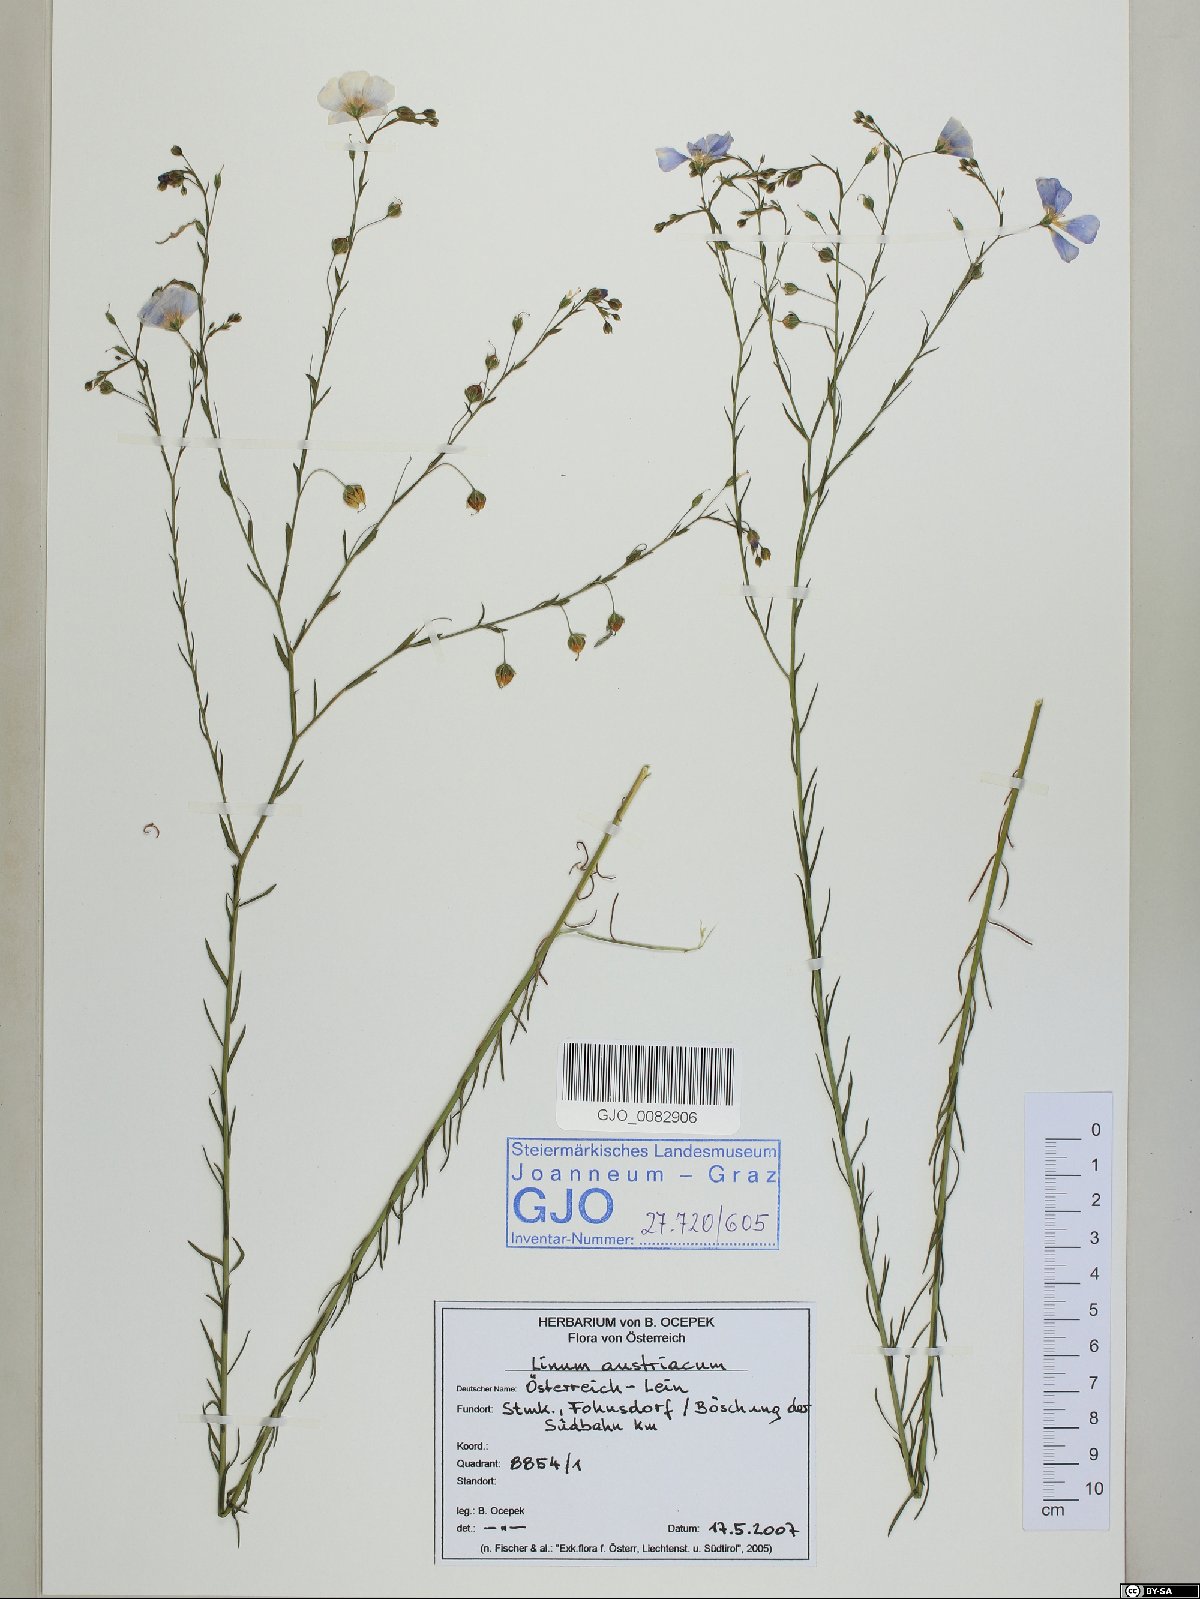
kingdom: Plantae
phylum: Tracheophyta
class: Magnoliopsida
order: Malpighiales
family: Linaceae
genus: Linum
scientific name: Linum austriacum
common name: Austrian flax
